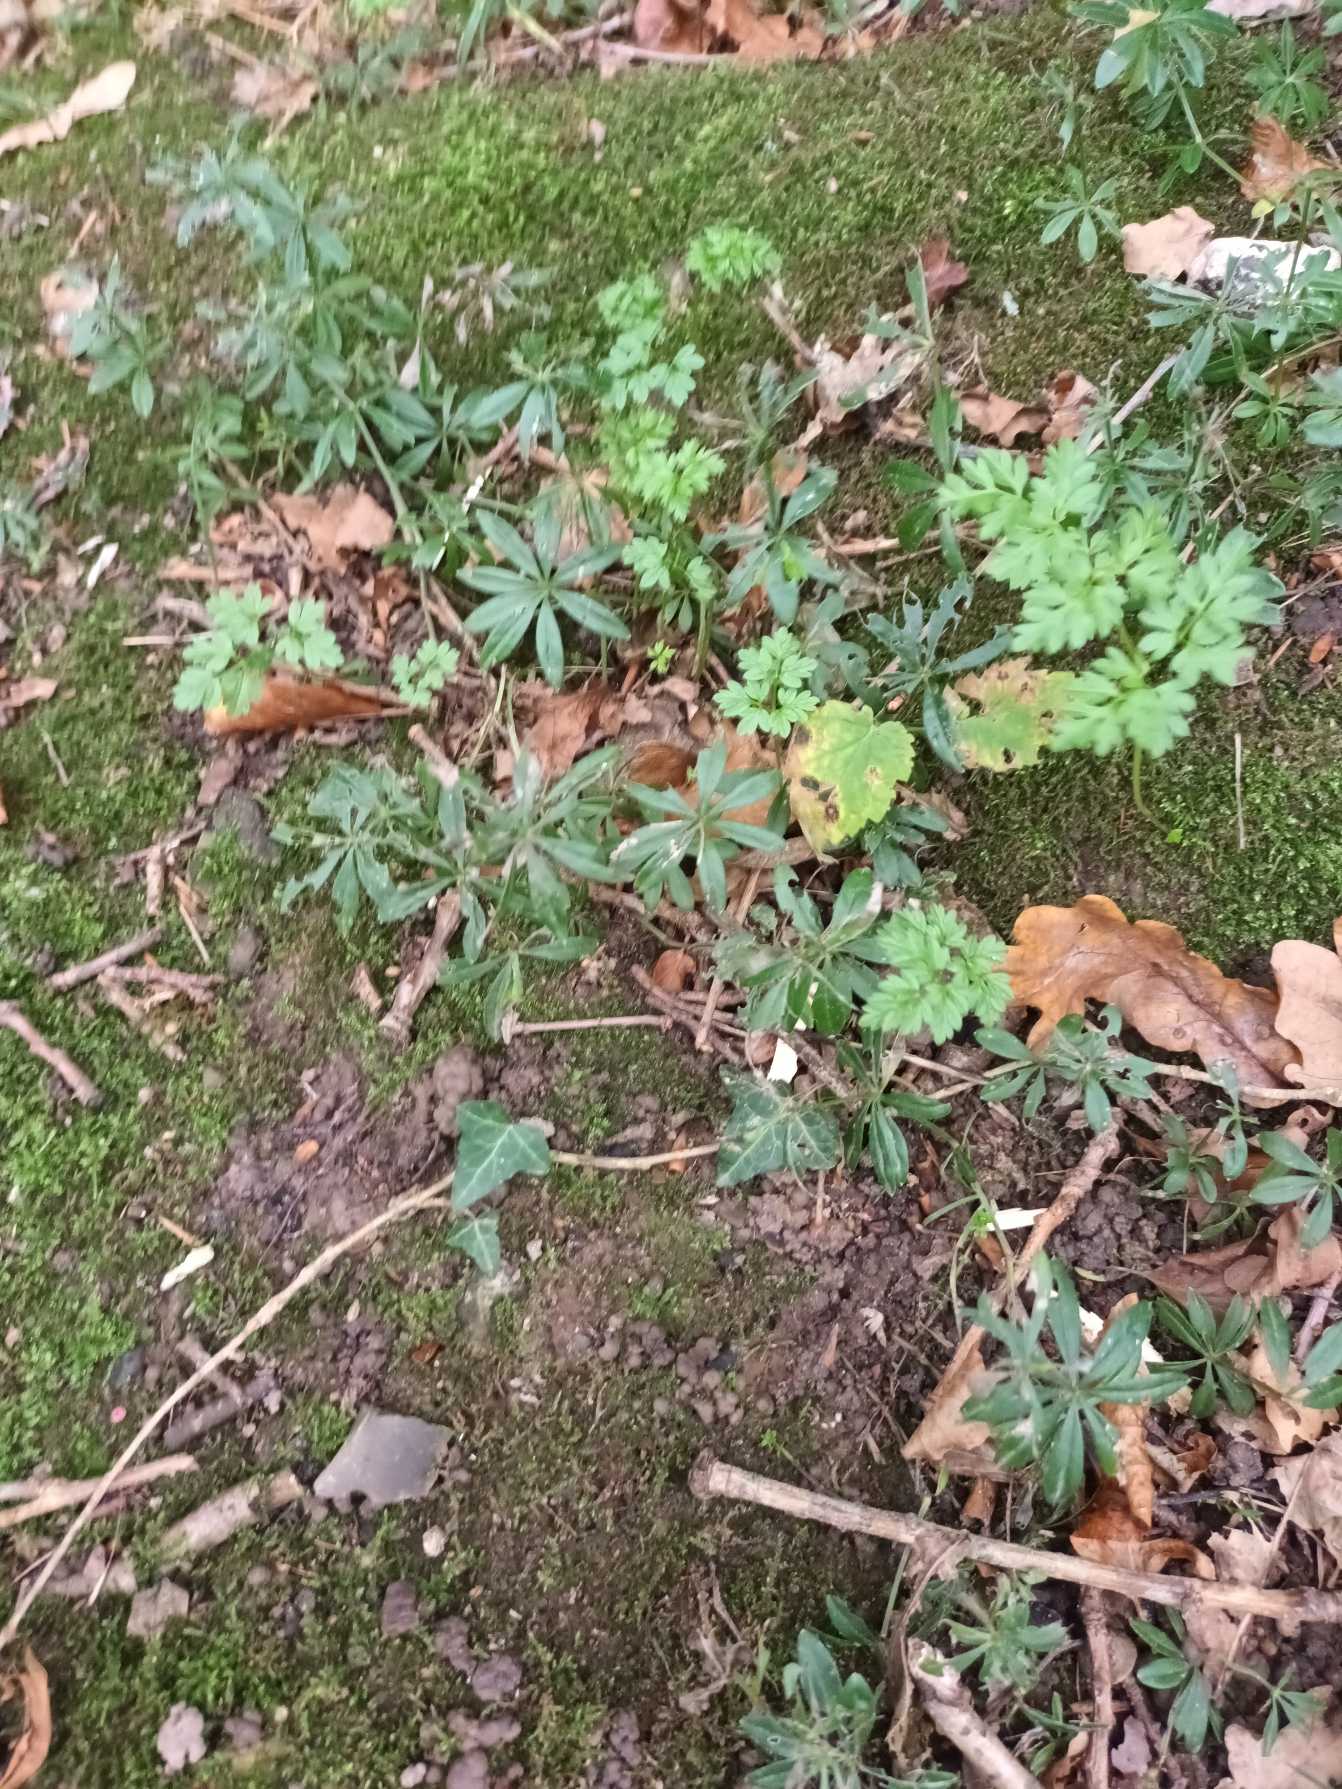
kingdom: Plantae
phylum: Tracheophyta
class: Magnoliopsida
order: Gentianales
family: Rubiaceae
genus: Galium
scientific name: Galium odoratum
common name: Skovmærke
